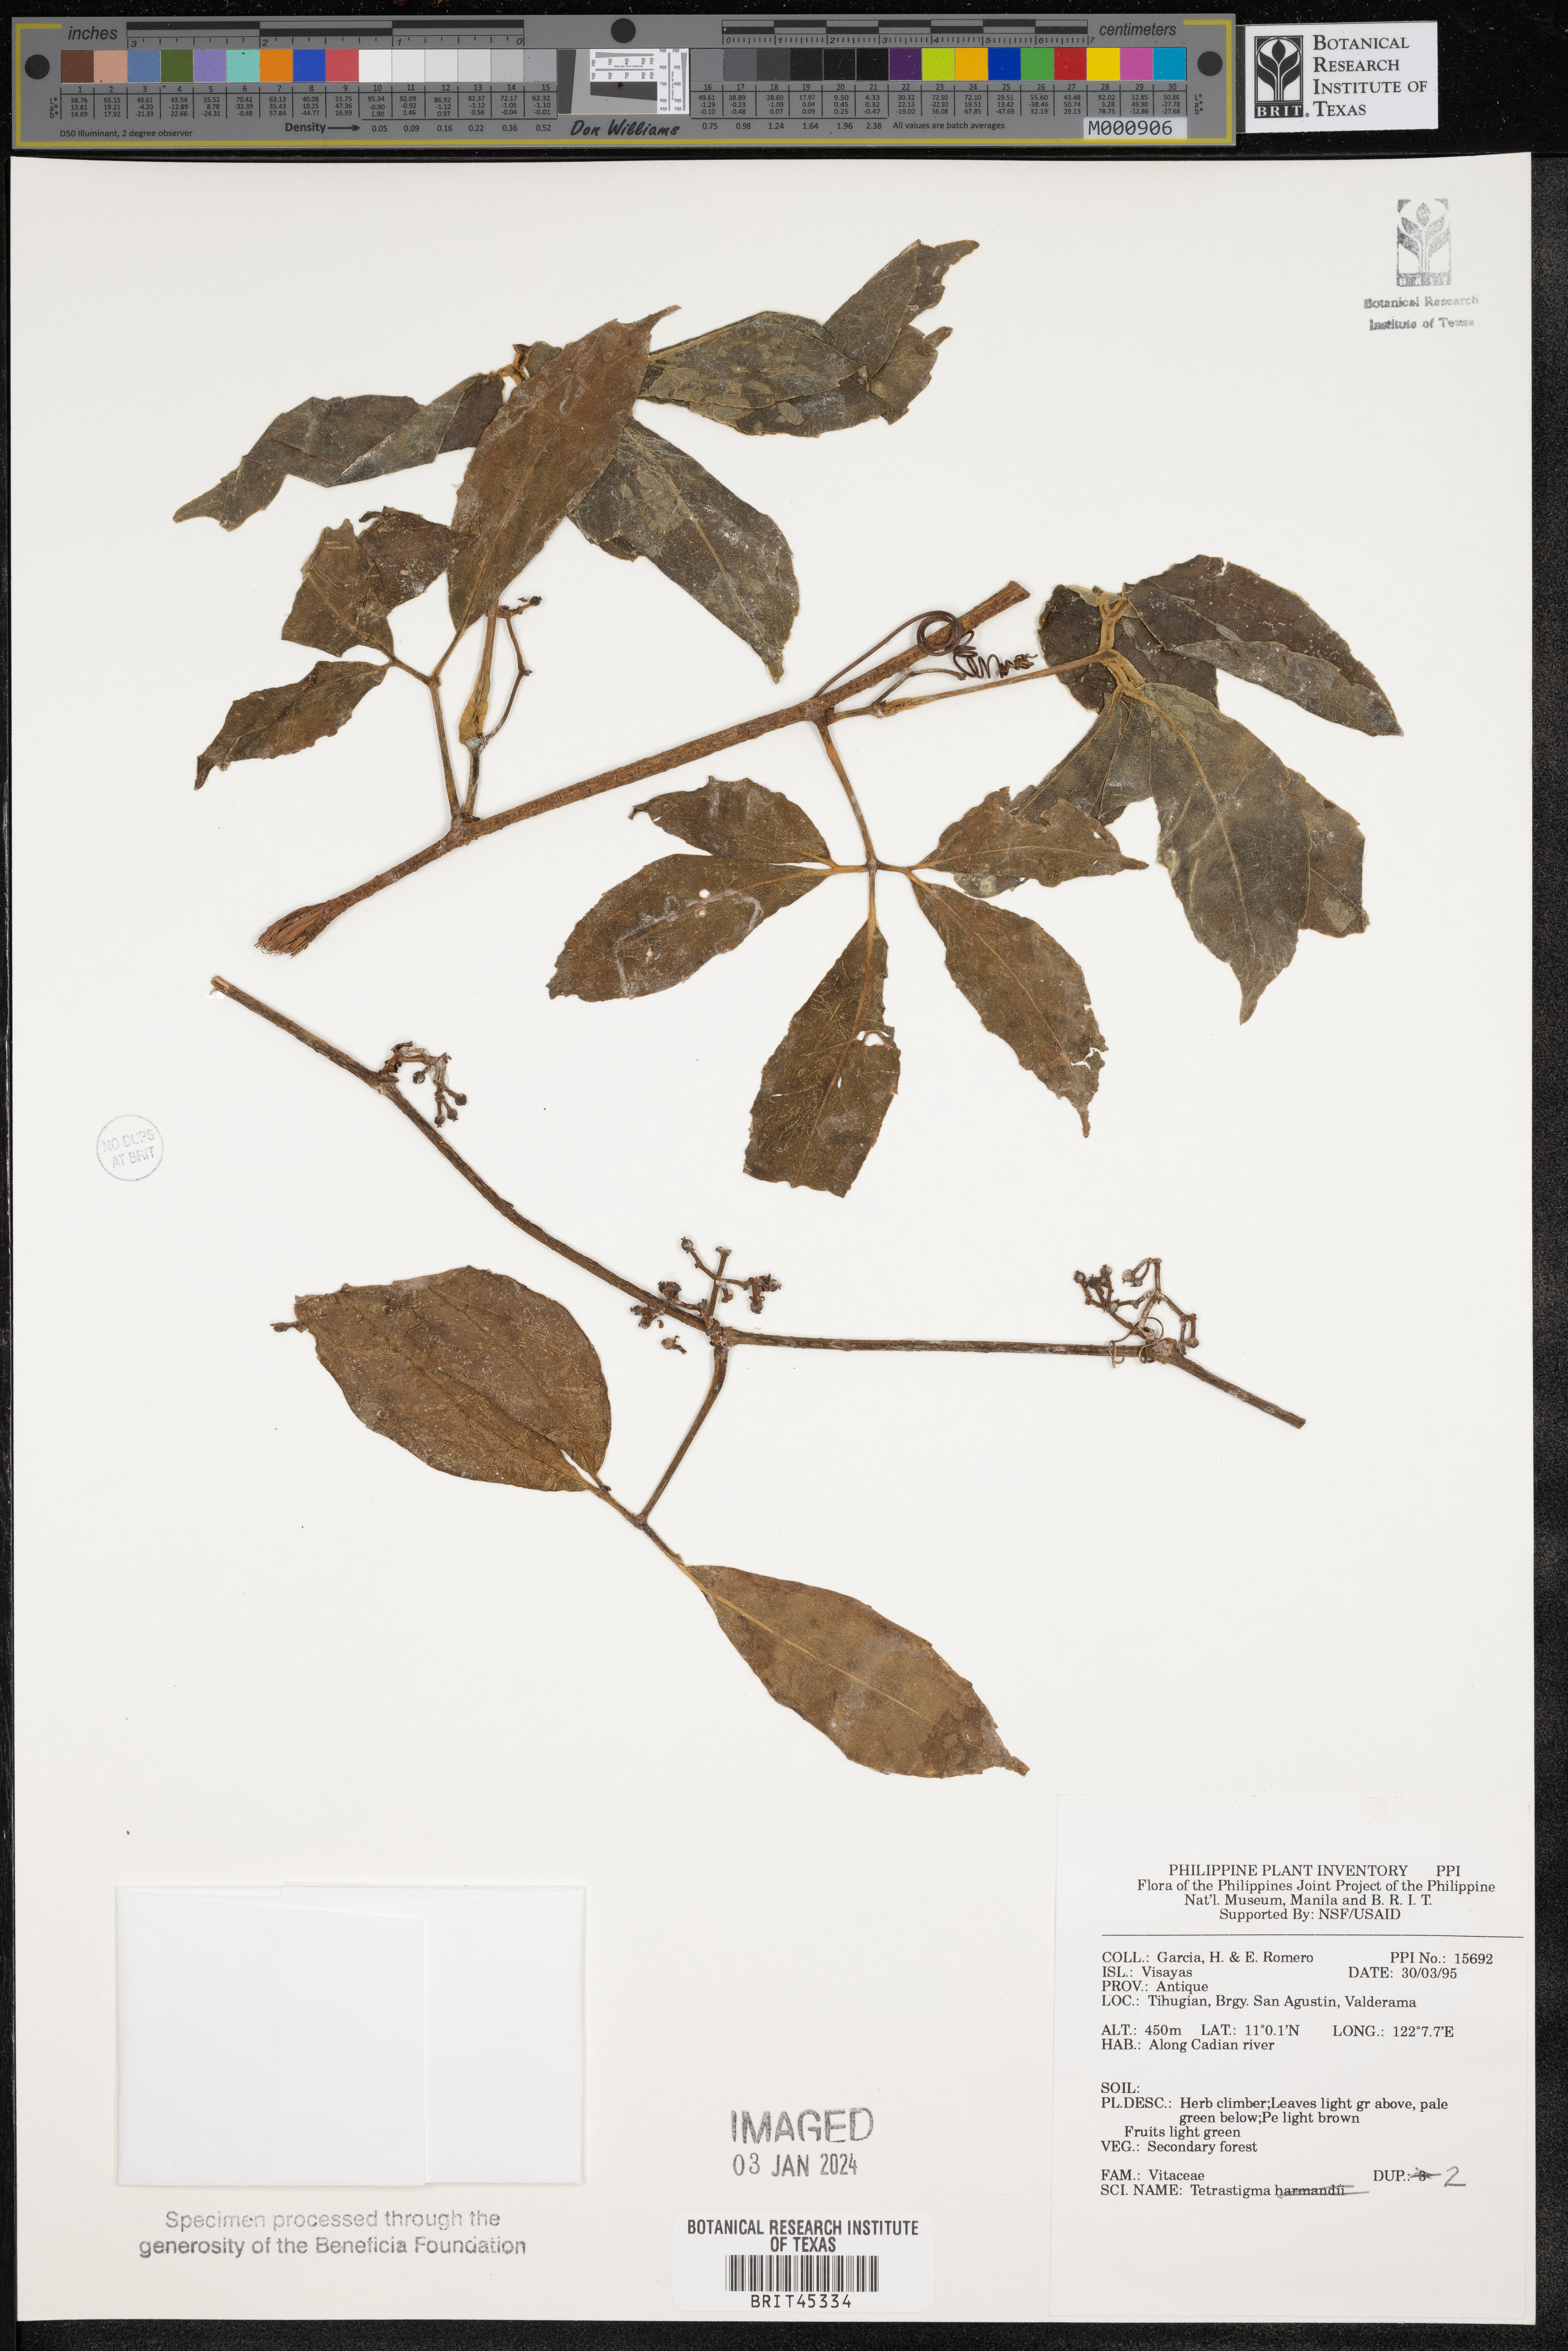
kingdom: Plantae
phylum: Tracheophyta
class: Magnoliopsida
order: Vitales
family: Vitaceae
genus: Tetrastigma
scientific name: Tetrastigma
